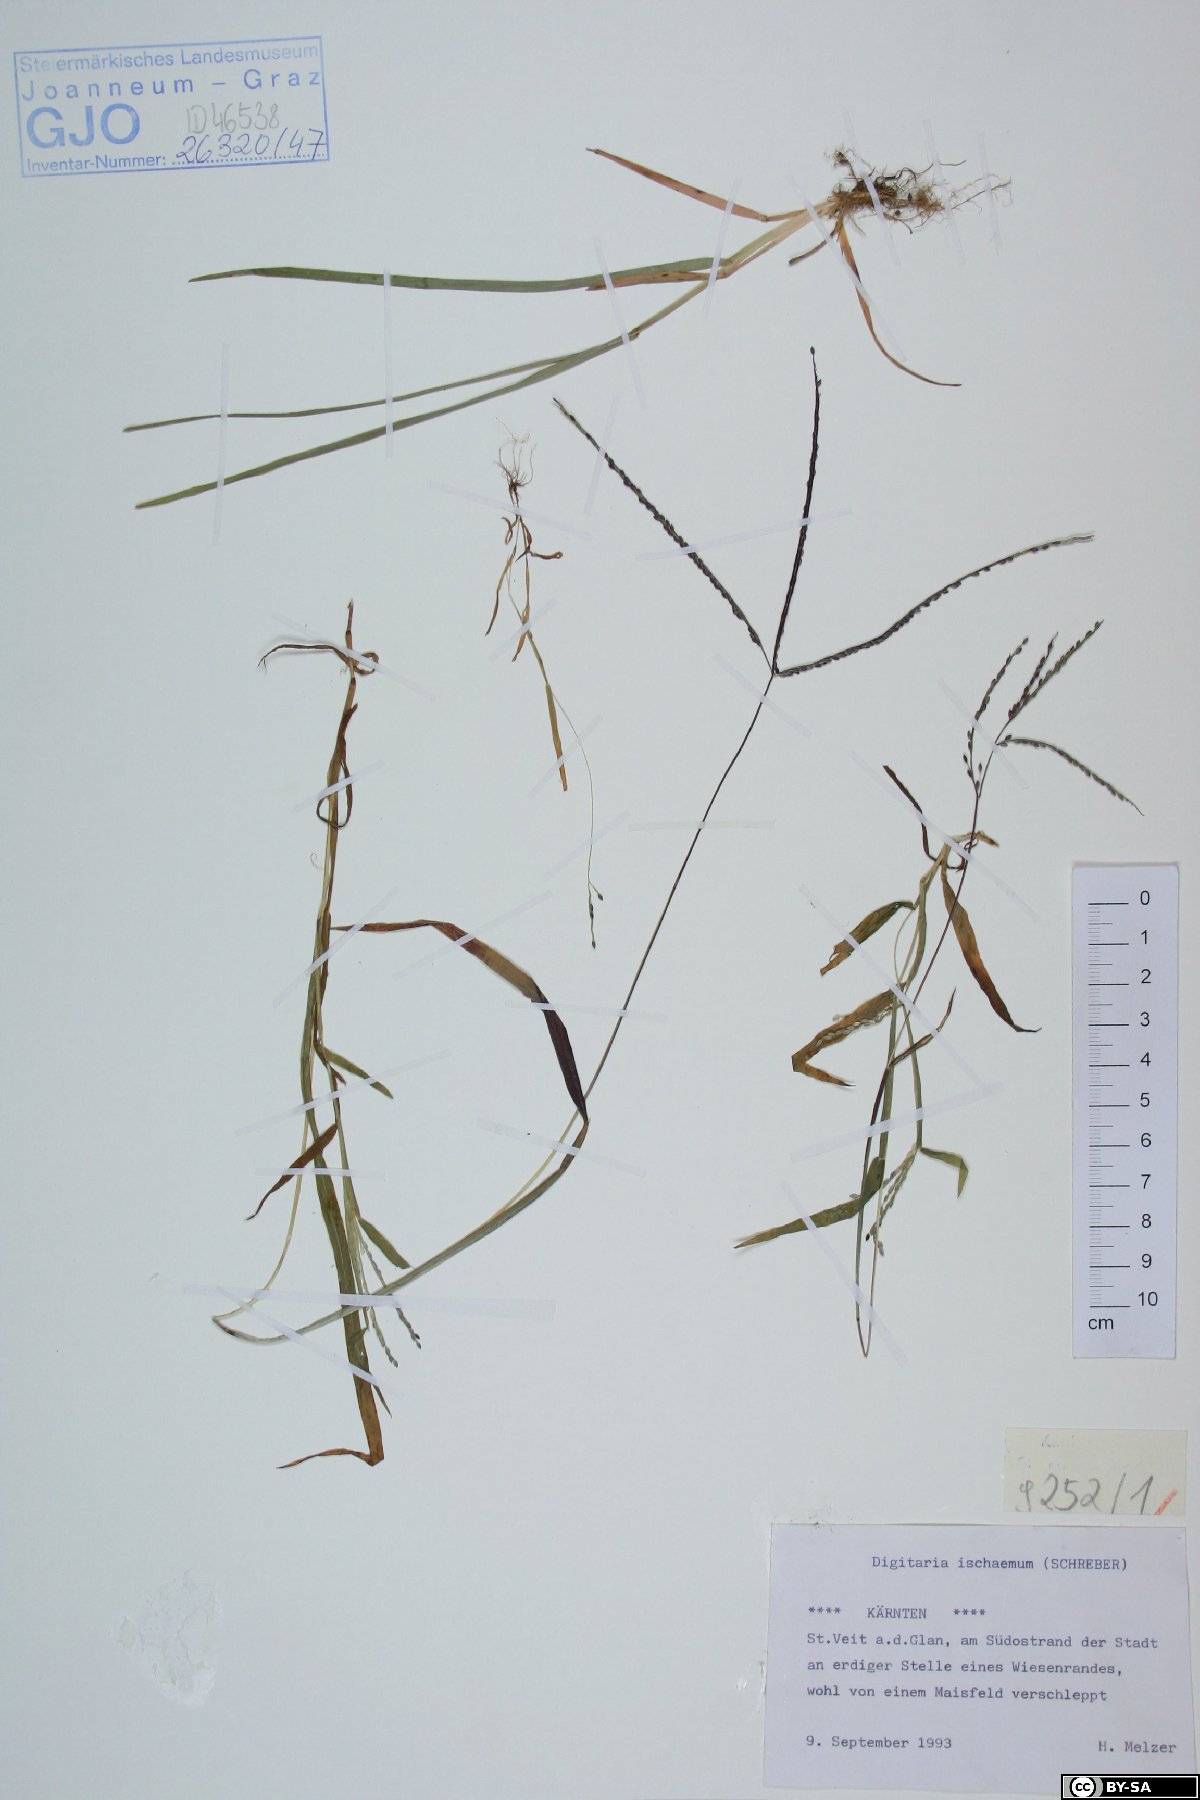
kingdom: Plantae
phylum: Tracheophyta
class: Liliopsida
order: Poales
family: Poaceae
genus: Digitaria
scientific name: Digitaria ischaemum
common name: Smooth crabgrass
